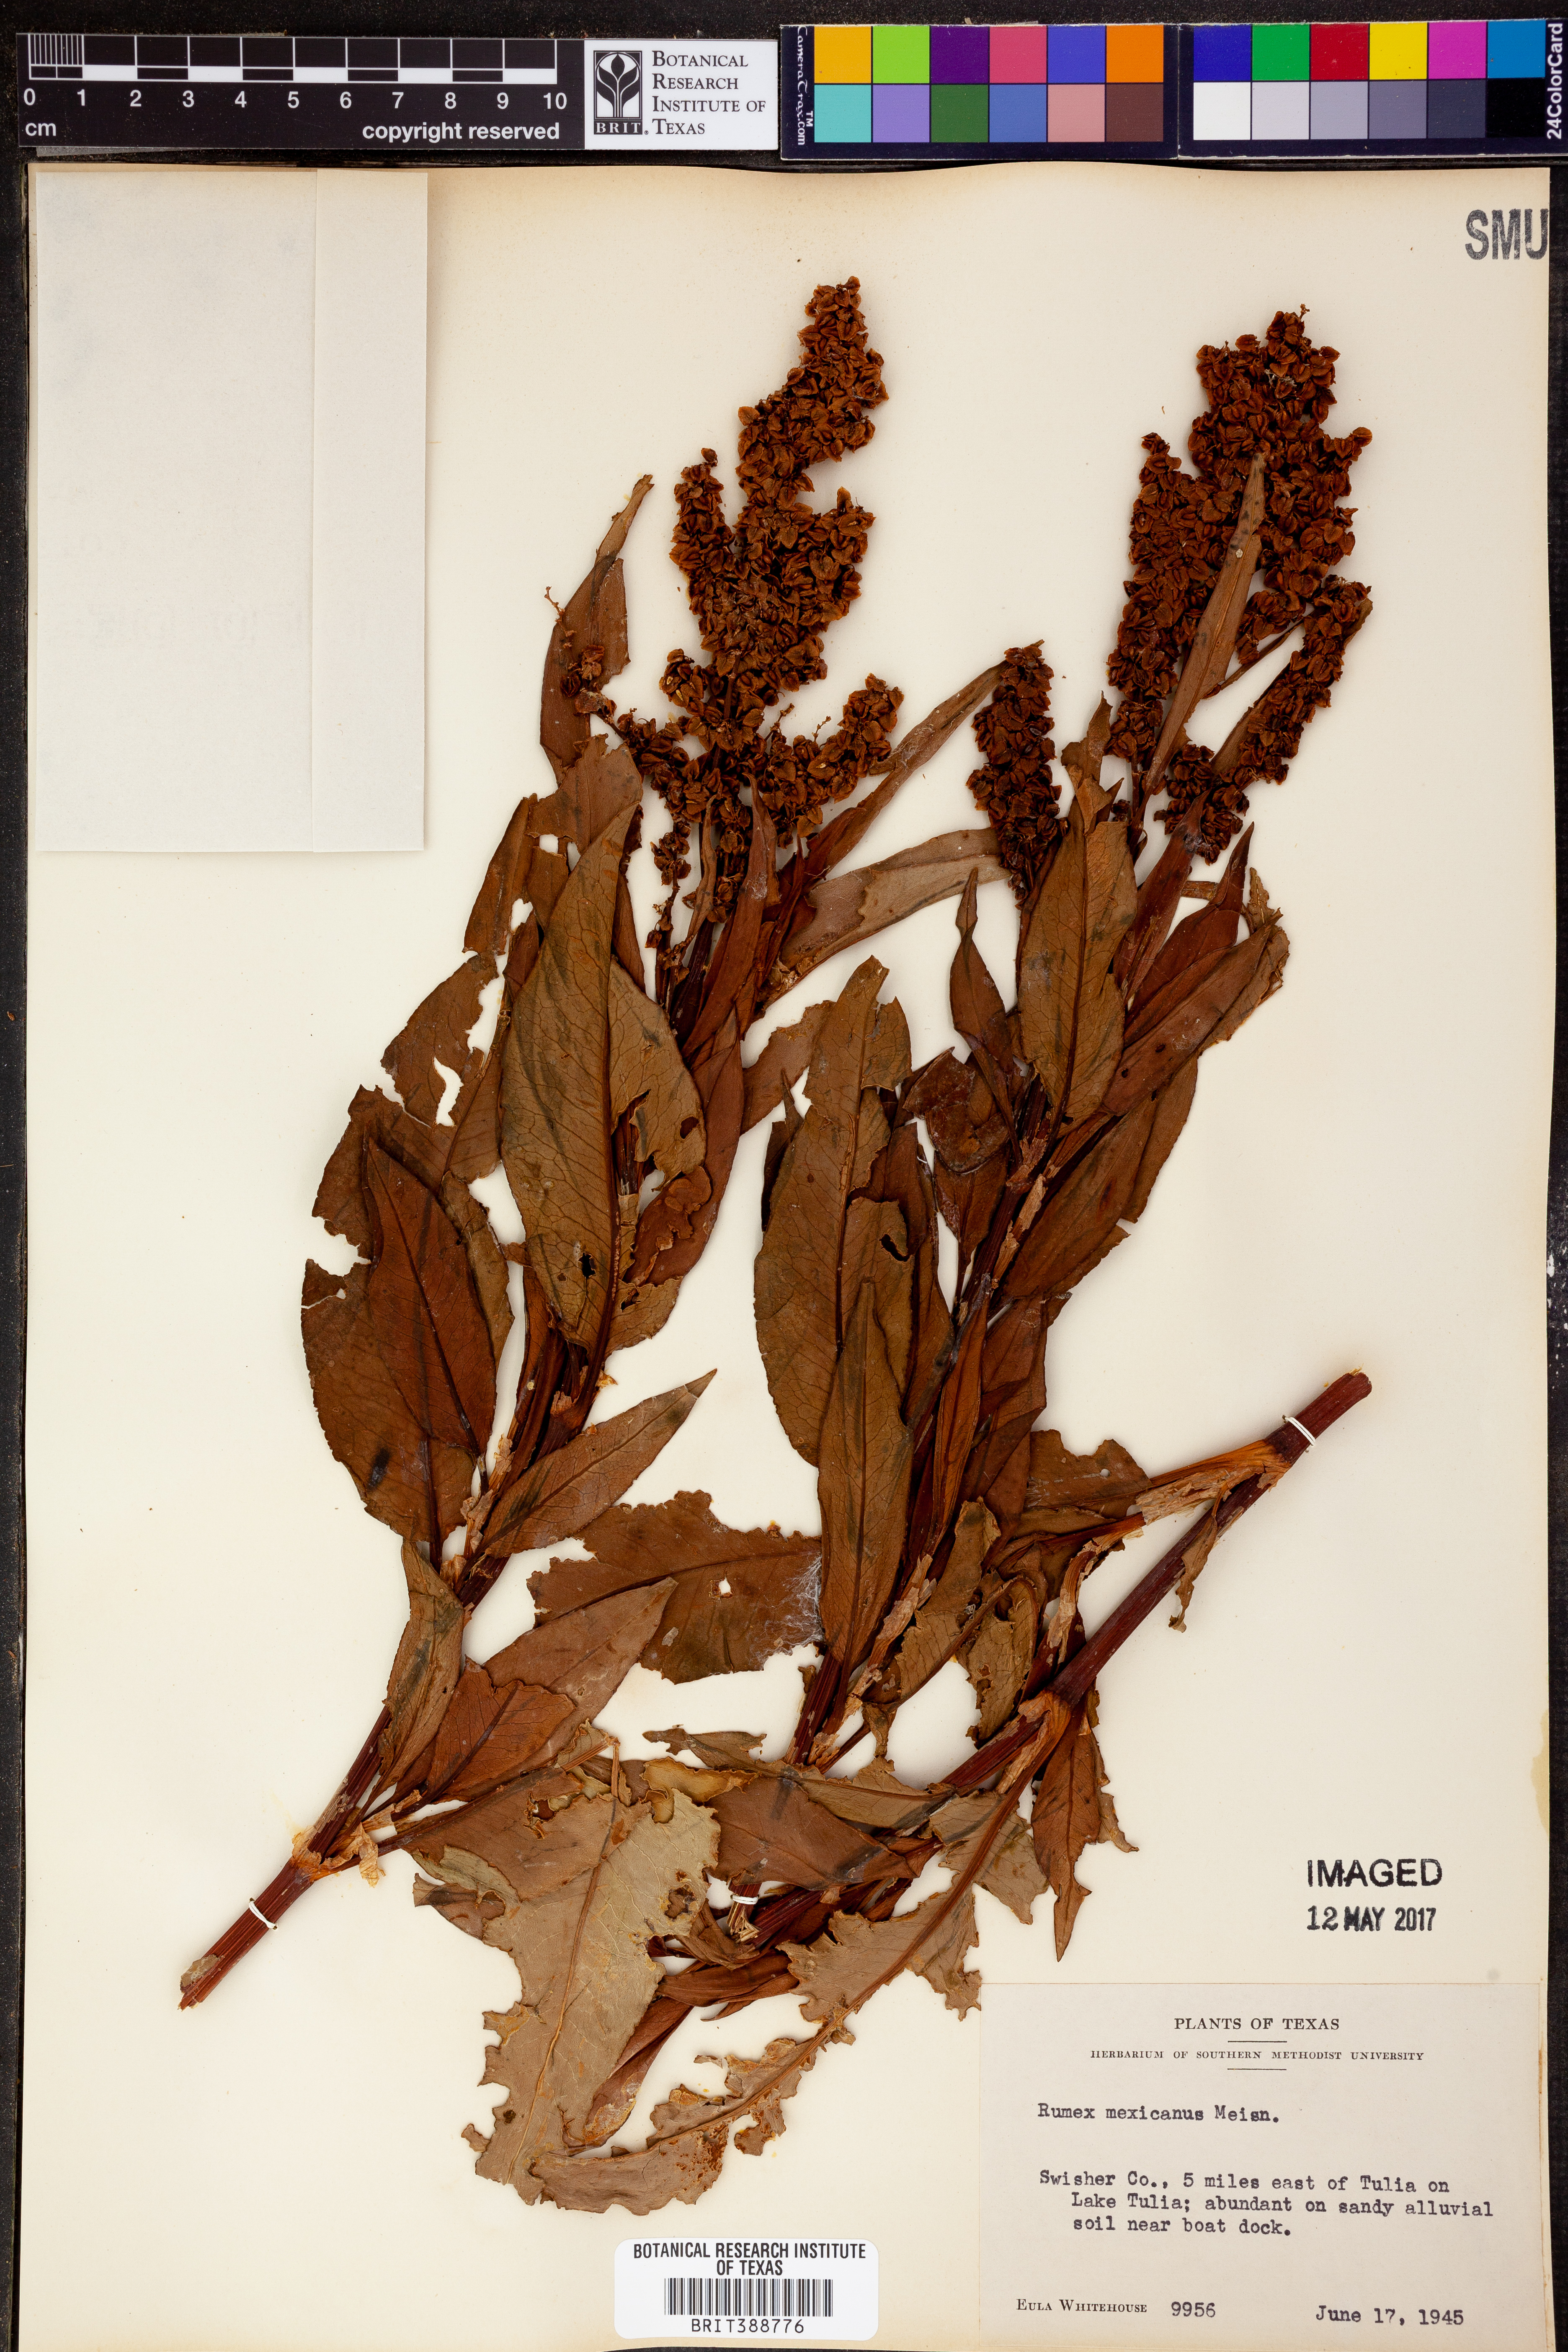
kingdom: Plantae
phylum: Tracheophyta
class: Magnoliopsida
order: Caryophyllales
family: Polygonaceae
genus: Rumex
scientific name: Rumex triangulivalvis
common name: Triangular-valve dock
